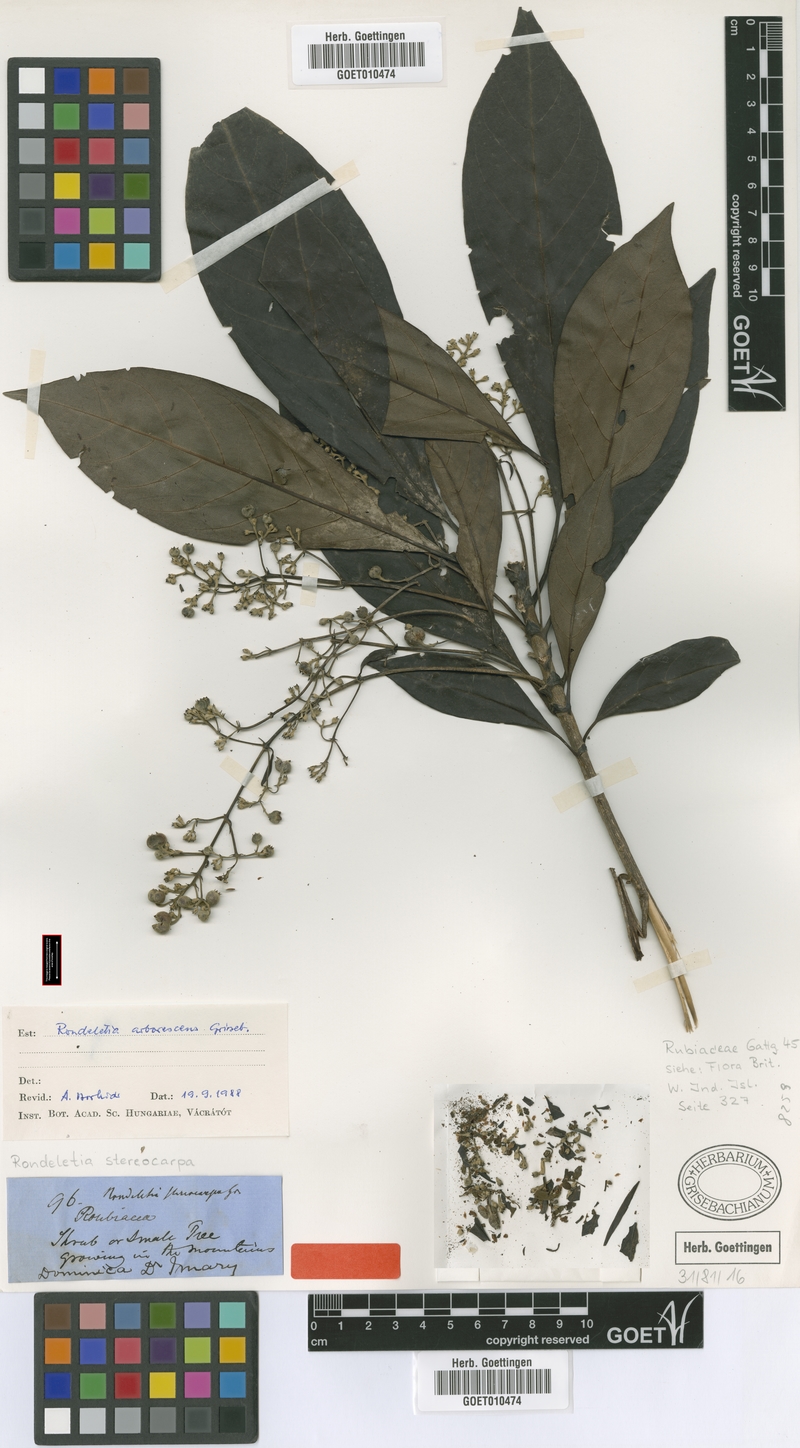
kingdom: Plantae
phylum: Tracheophyta
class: Magnoliopsida
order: Gentianales
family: Rubiaceae
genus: Rondeletia
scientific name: Rondeletia parviflora
